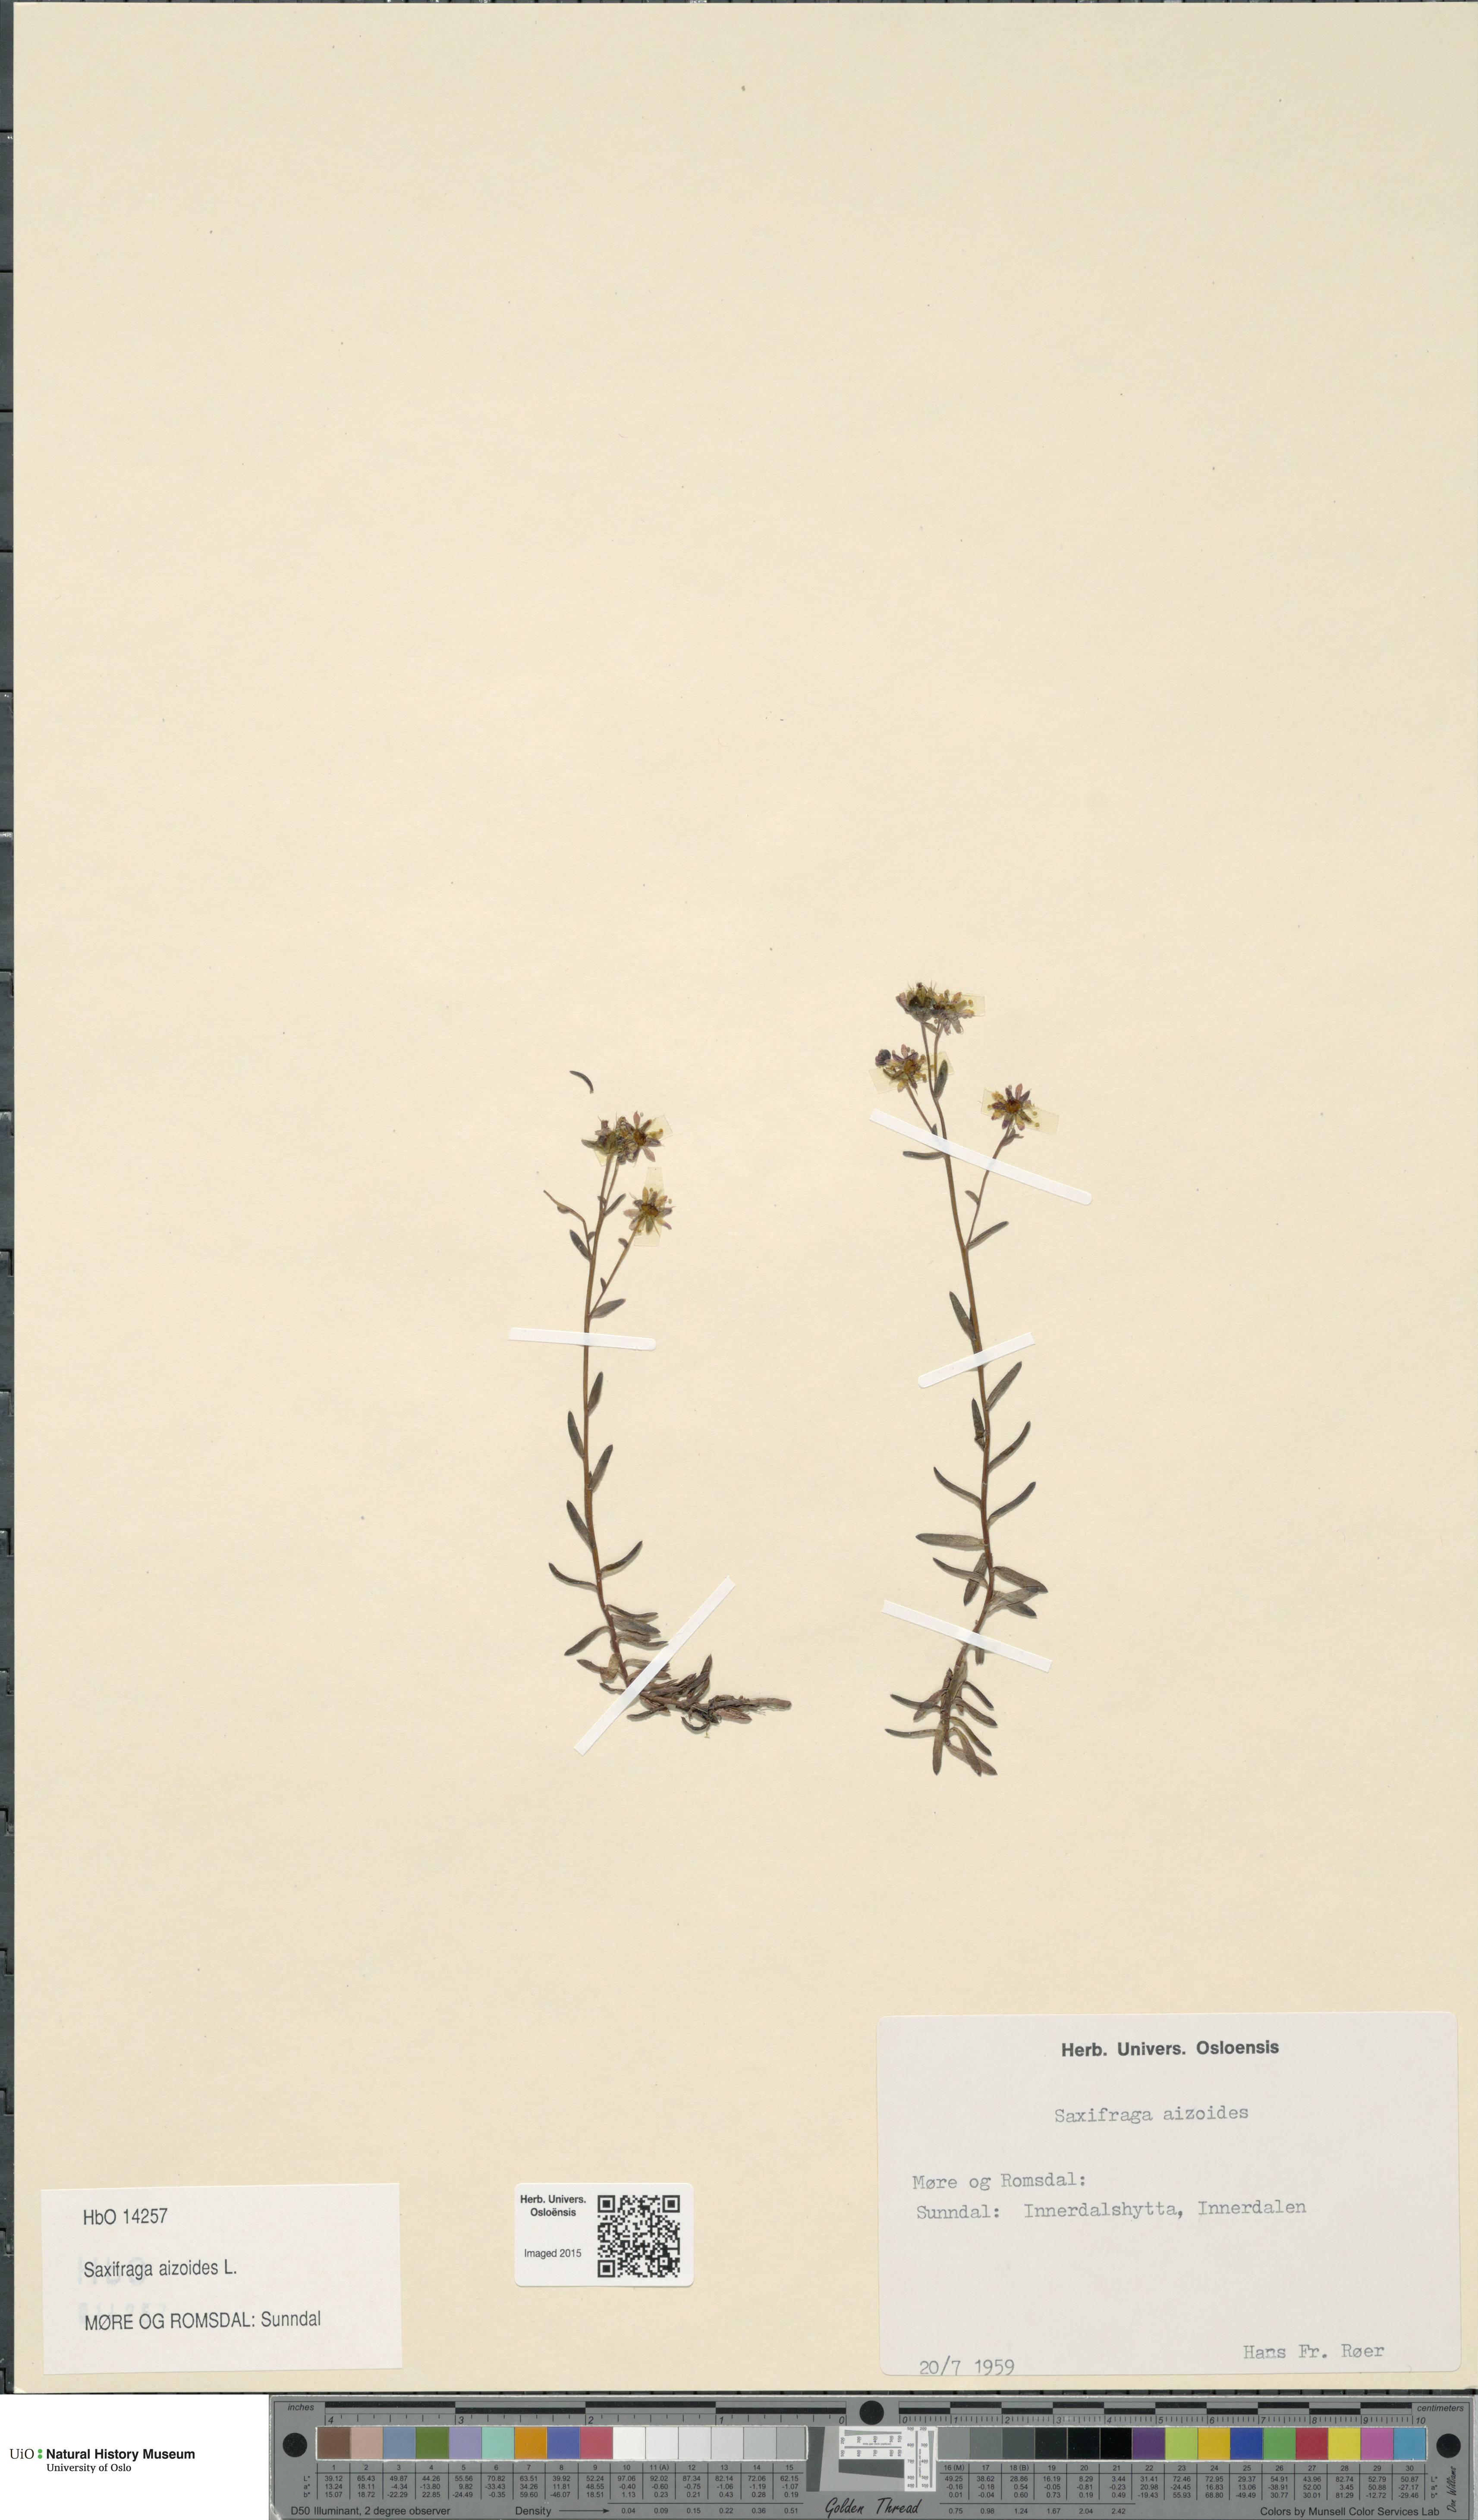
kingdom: Plantae
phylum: Tracheophyta
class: Magnoliopsida
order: Saxifragales
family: Saxifragaceae
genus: Saxifraga
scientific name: Saxifraga aizoides
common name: Yellow mountain saxifrage
